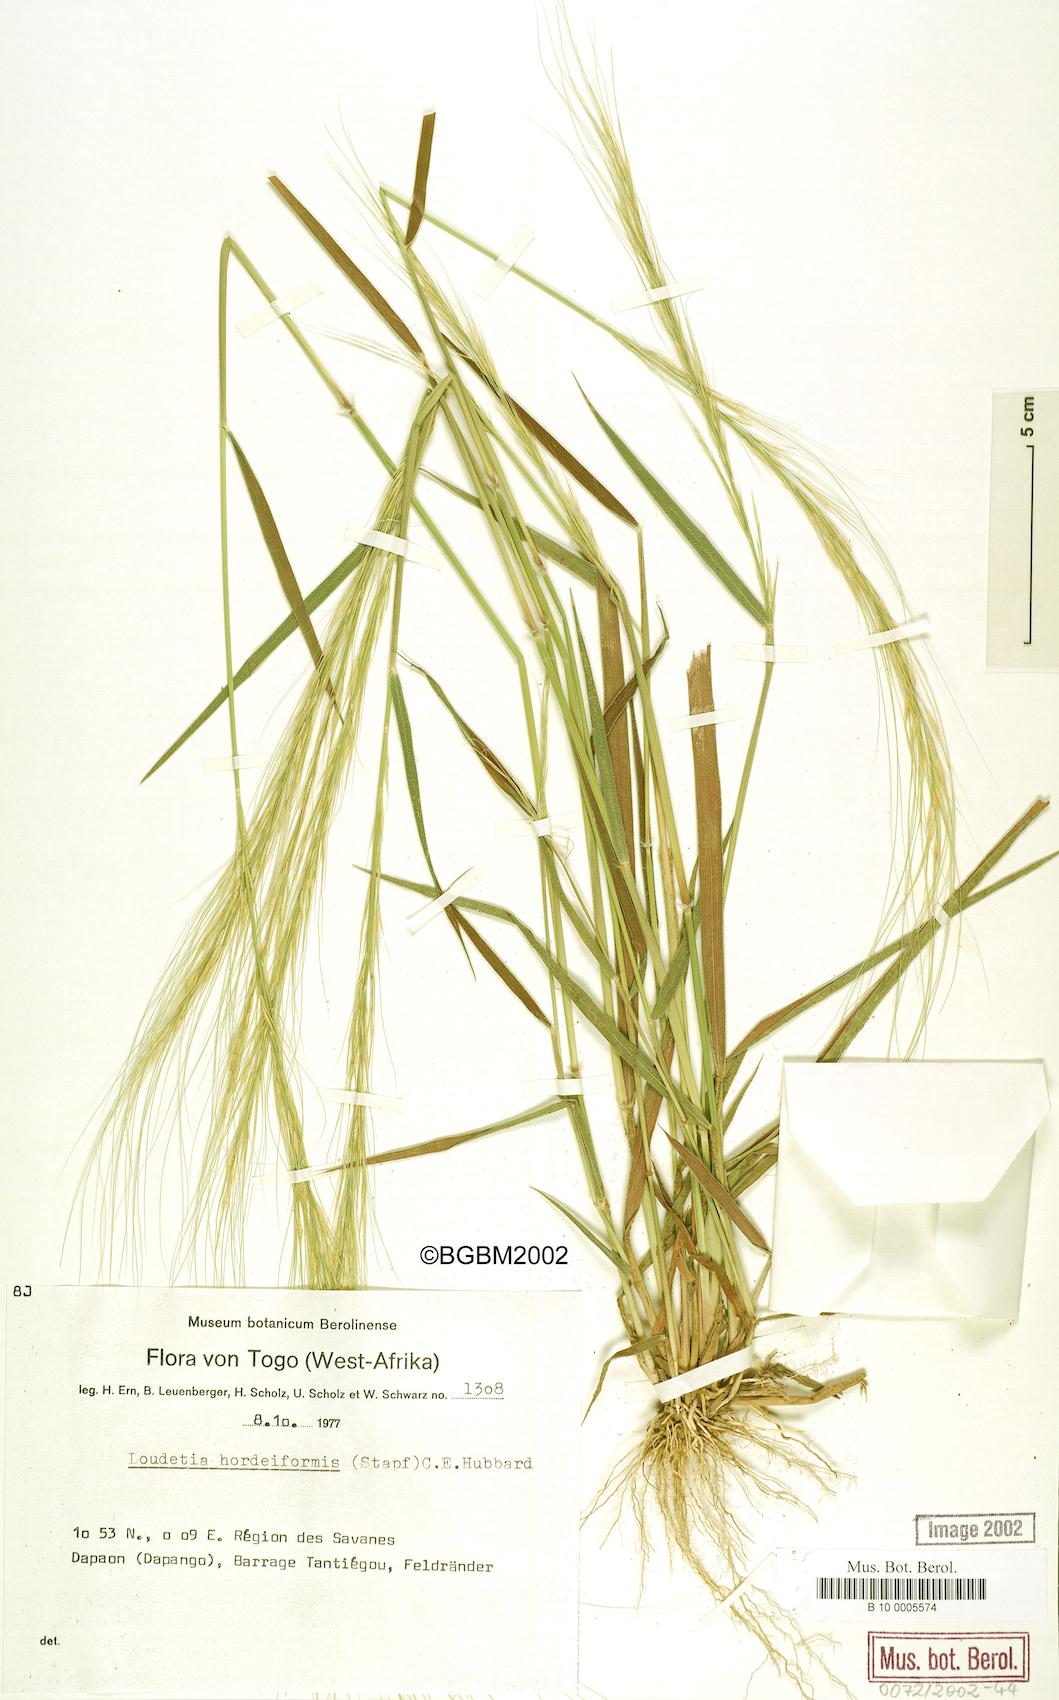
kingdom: Plantae
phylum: Tracheophyta
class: Liliopsida
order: Poales
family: Poaceae
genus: Loudetia
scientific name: Loudetia hordeiformis
